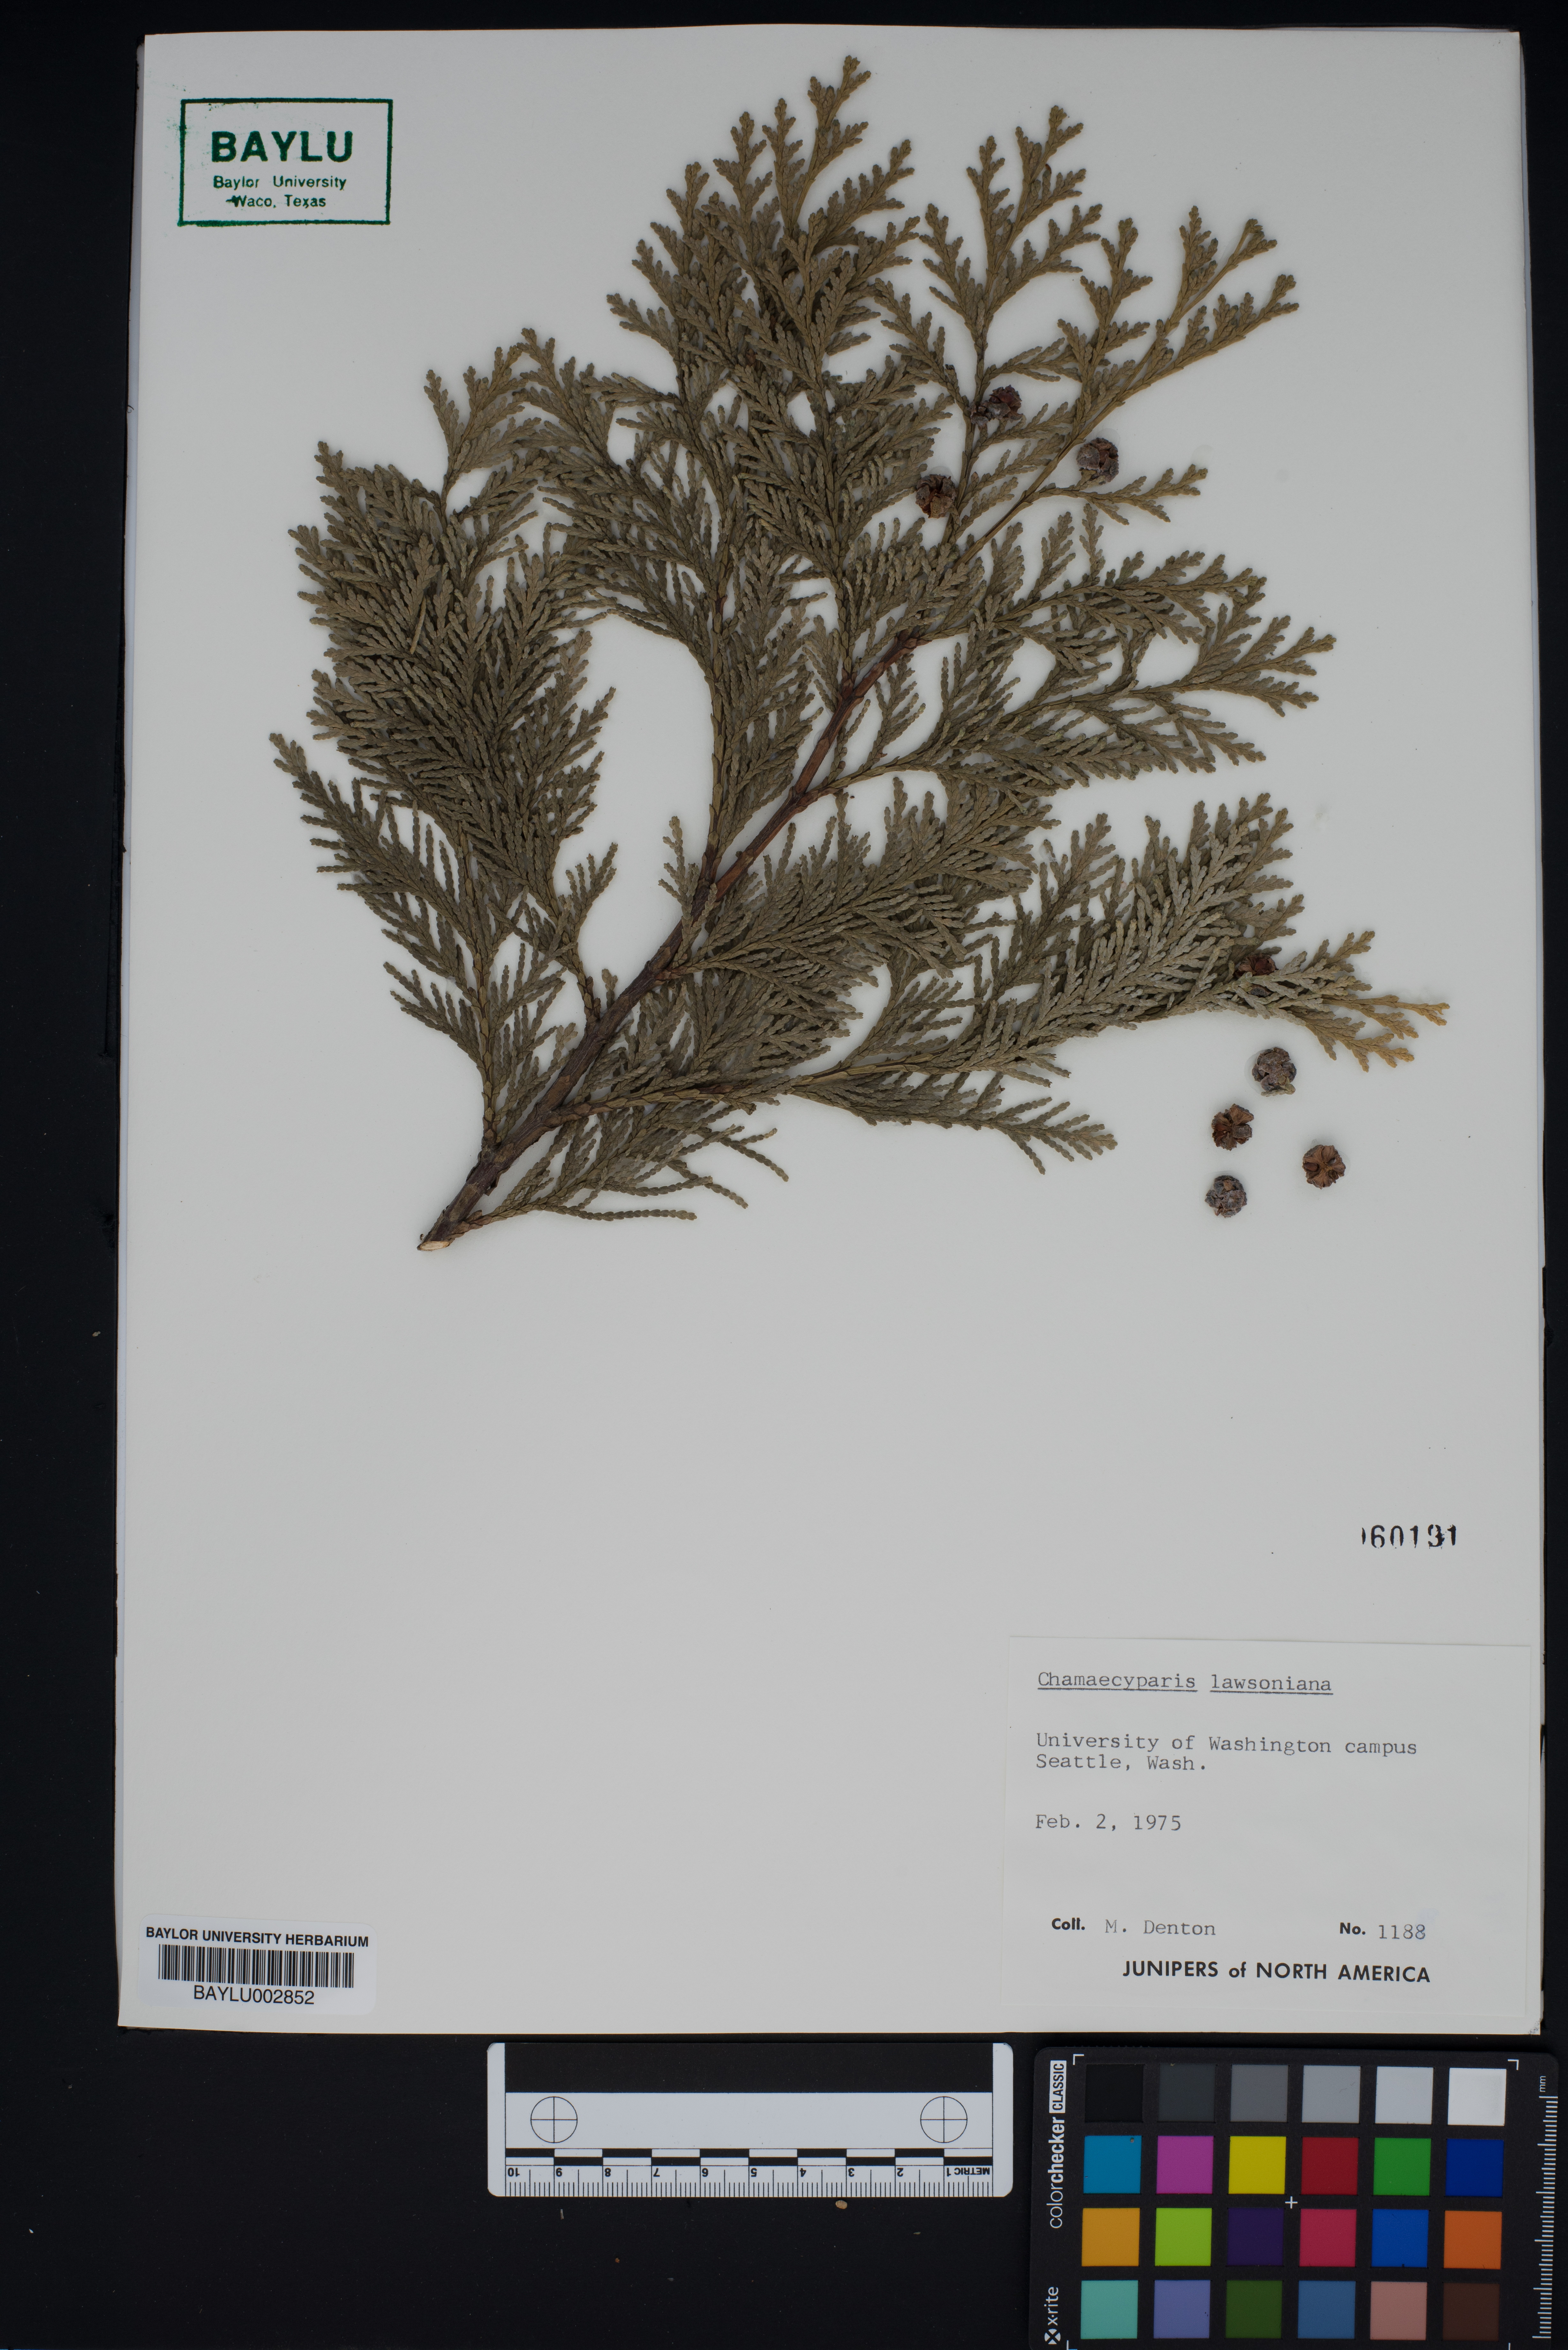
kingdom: Plantae
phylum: Tracheophyta
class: Pinopsida
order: Pinales
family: Cupressaceae
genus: Chamaecyparis
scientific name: Chamaecyparis lawsoniana
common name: Lawson's cypress
